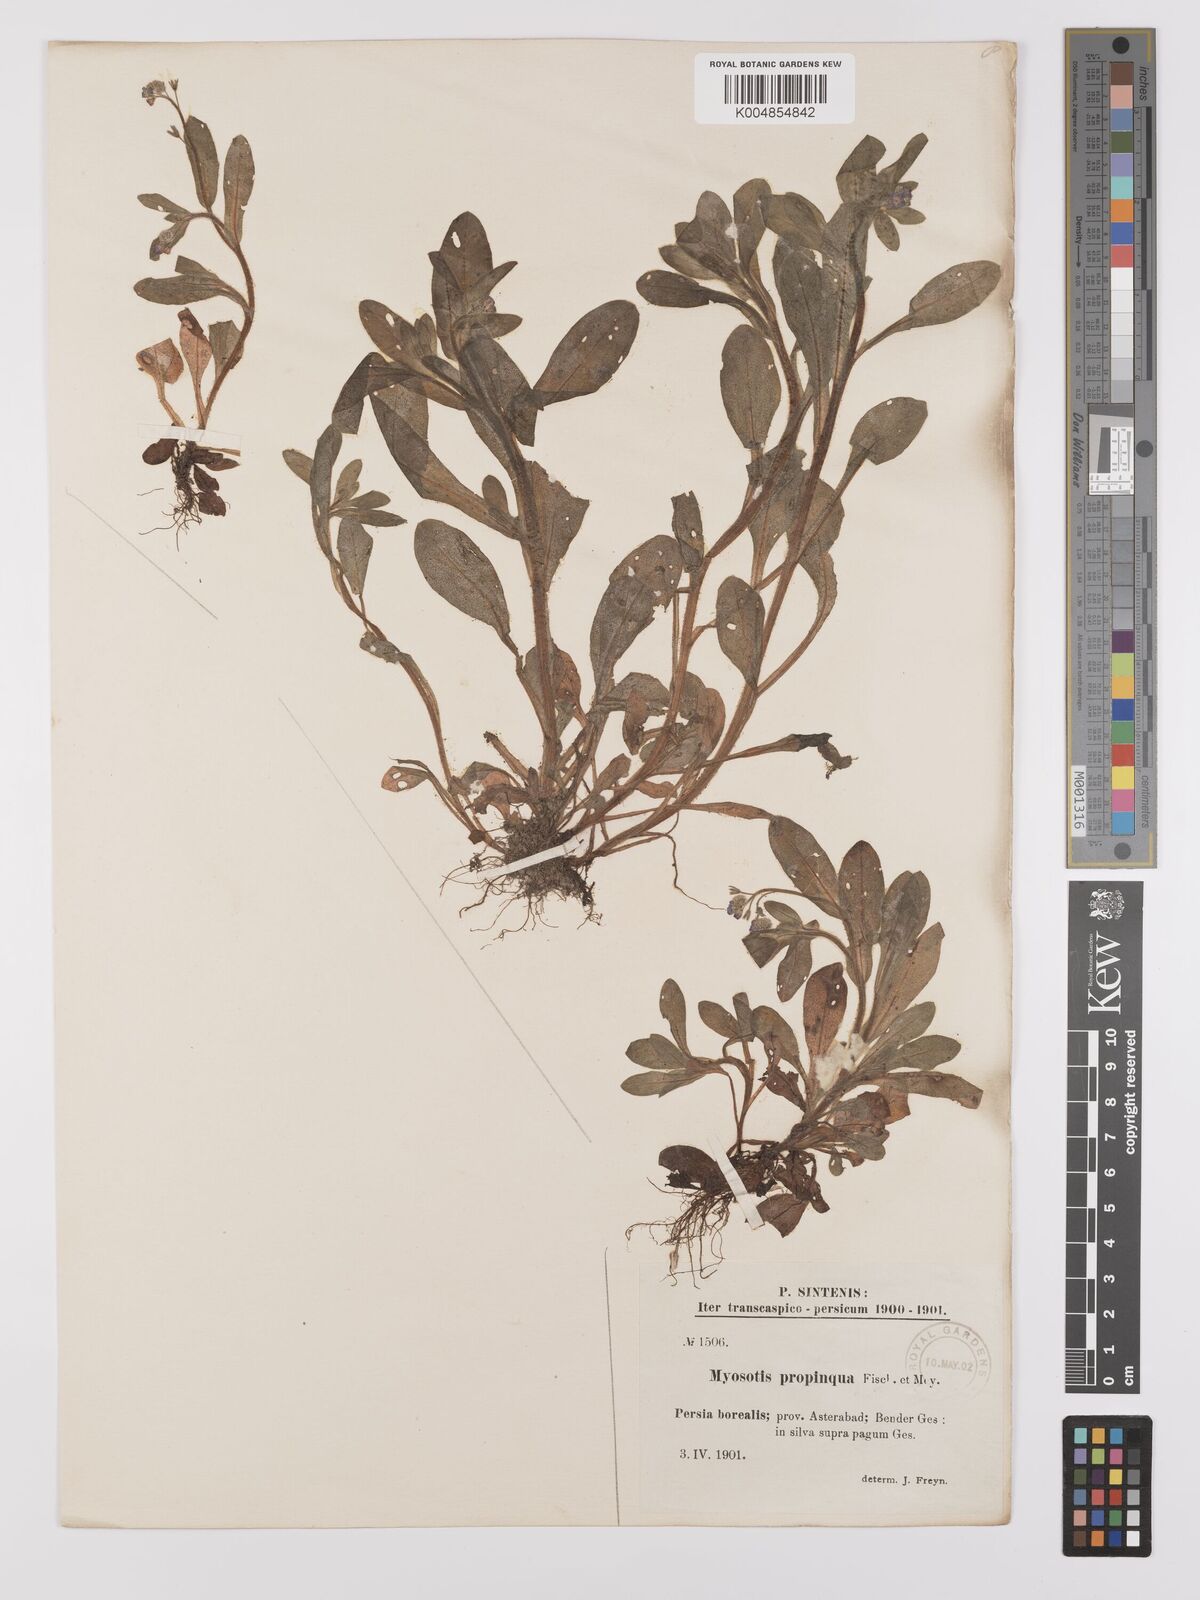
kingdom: Plantae
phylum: Tracheophyta
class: Magnoliopsida
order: Boraginales
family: Boraginaceae
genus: Myosotis
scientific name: Myosotis propinqua
